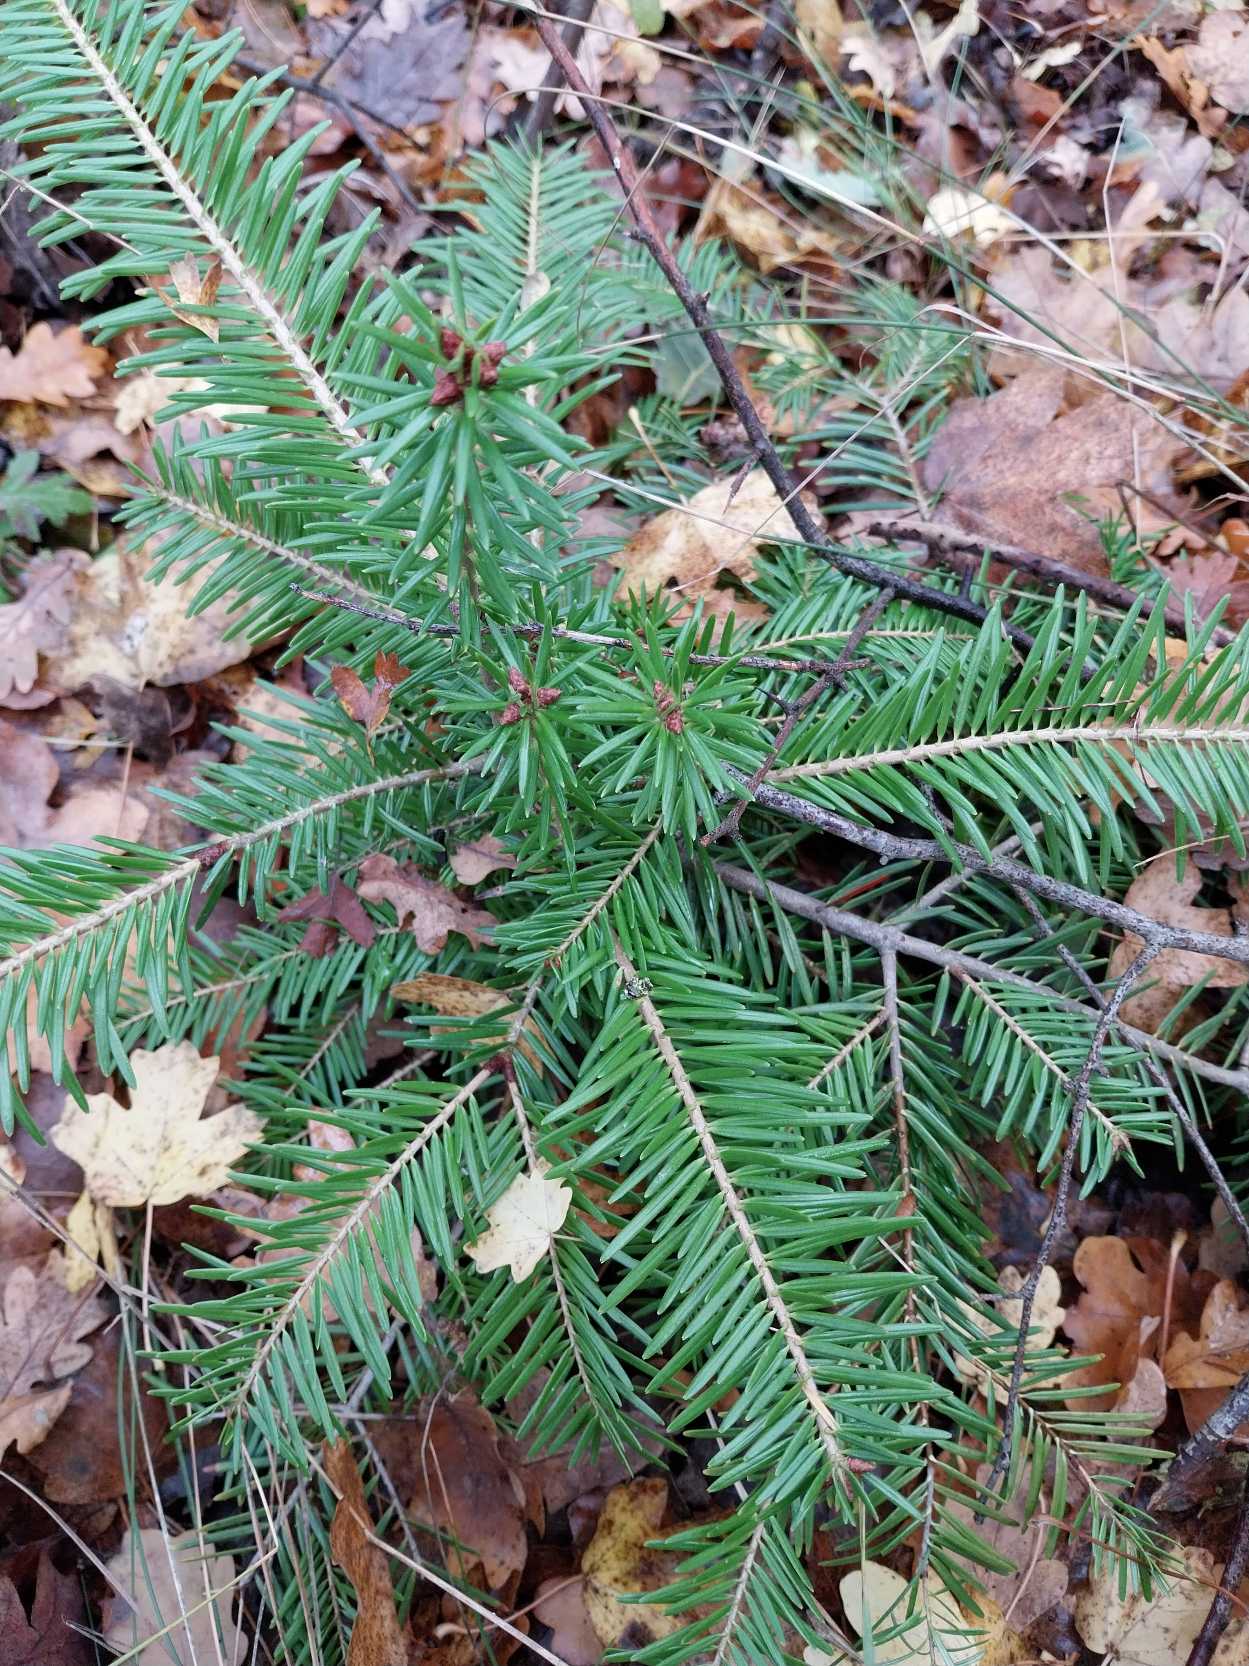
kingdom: Plantae
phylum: Tracheophyta
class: Pinopsida
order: Pinales
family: Pinaceae
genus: Abies
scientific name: Abies alba
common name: Almindelig ædelgran
